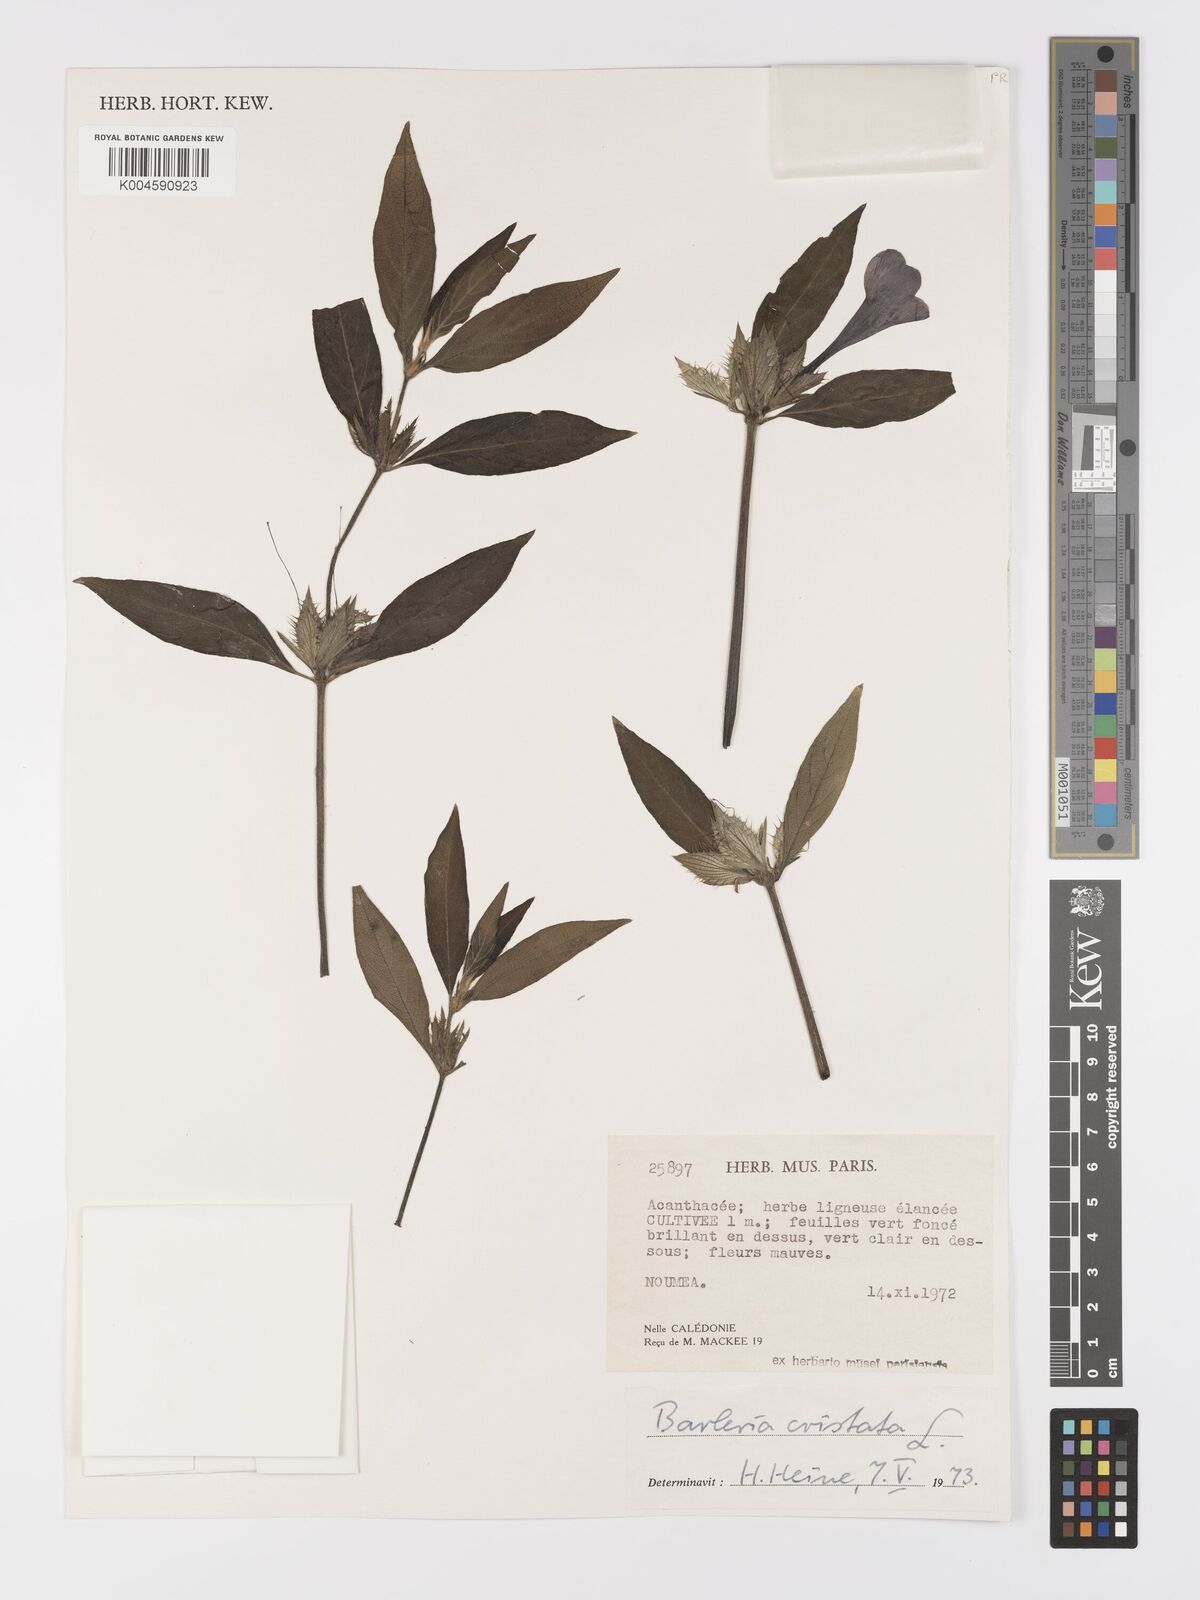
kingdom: Plantae
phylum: Tracheophyta
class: Magnoliopsida
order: Lamiales
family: Acanthaceae
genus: Barleria
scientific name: Barleria cristata
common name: Crested philippine violet
